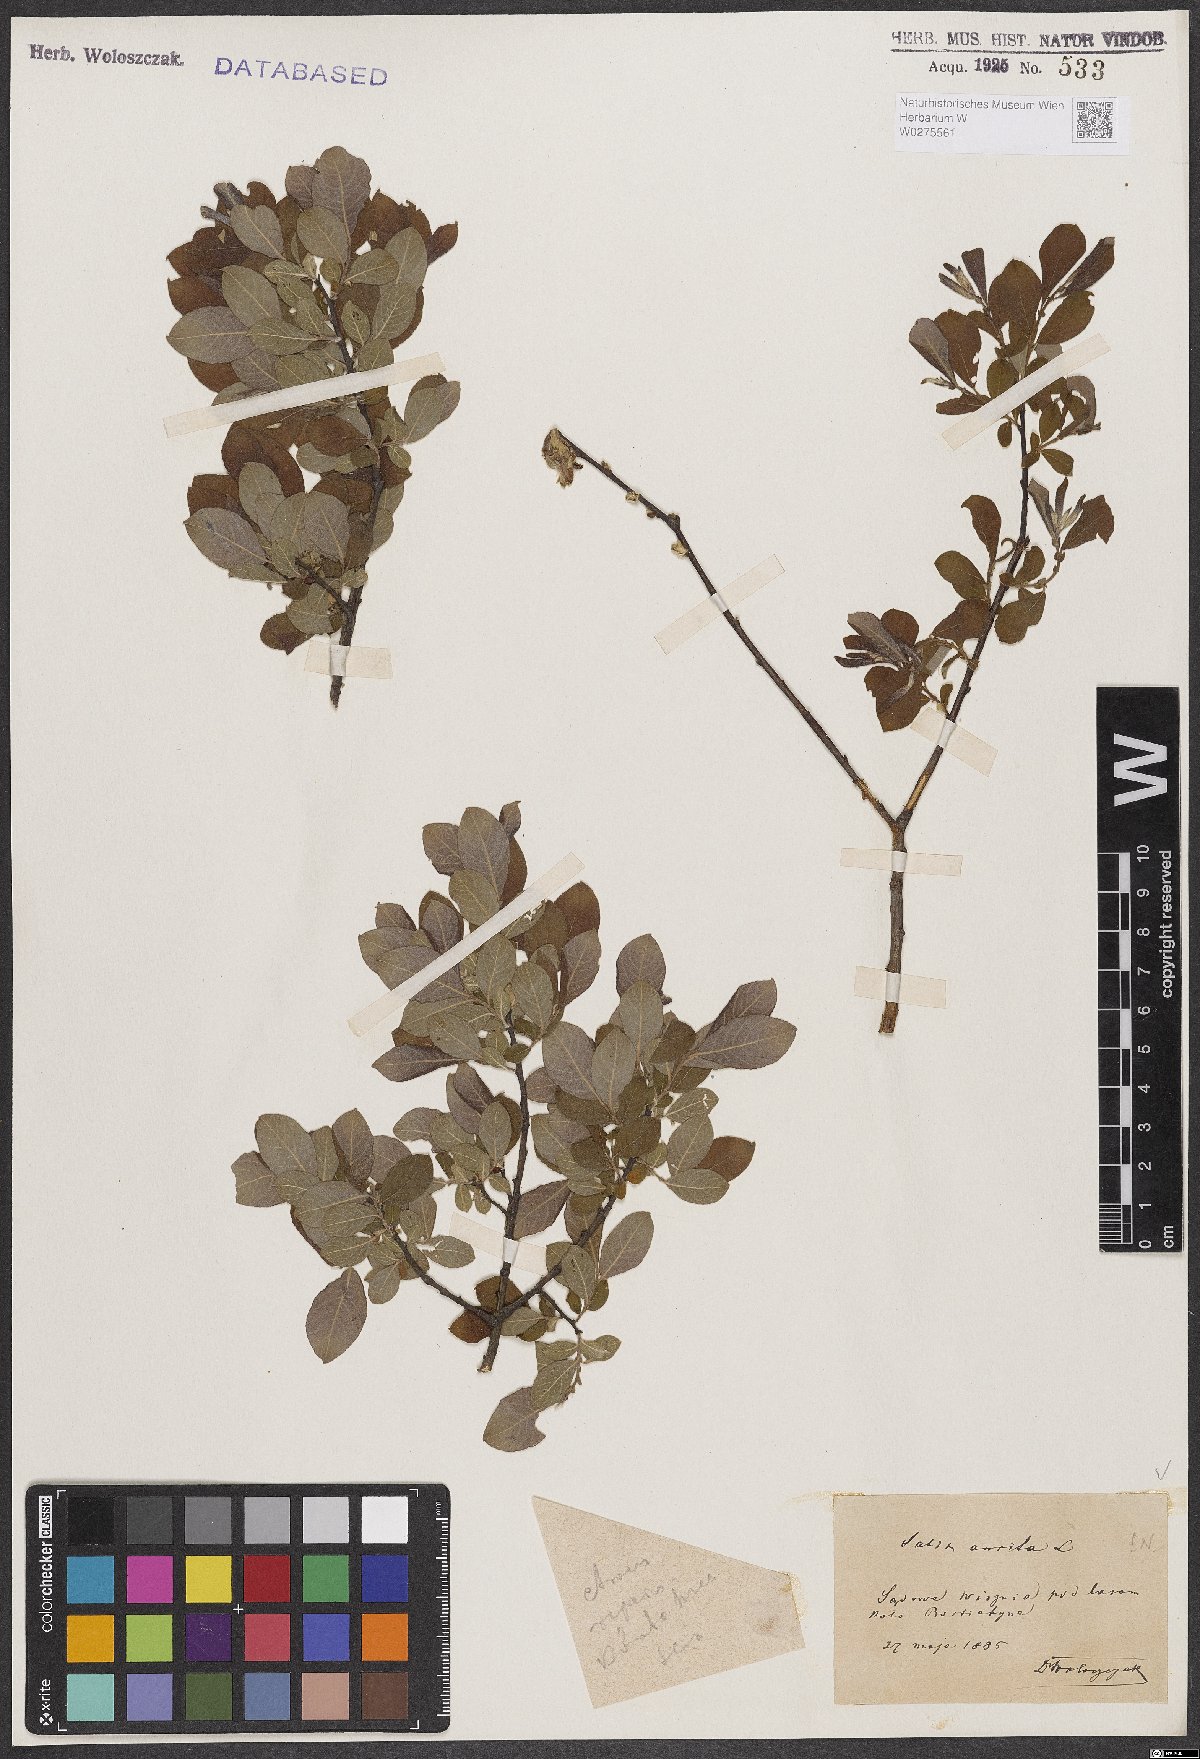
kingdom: Plantae
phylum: Tracheophyta
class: Magnoliopsida
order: Malpighiales
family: Salicaceae
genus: Salix
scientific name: Salix aurita
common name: Eared willow
